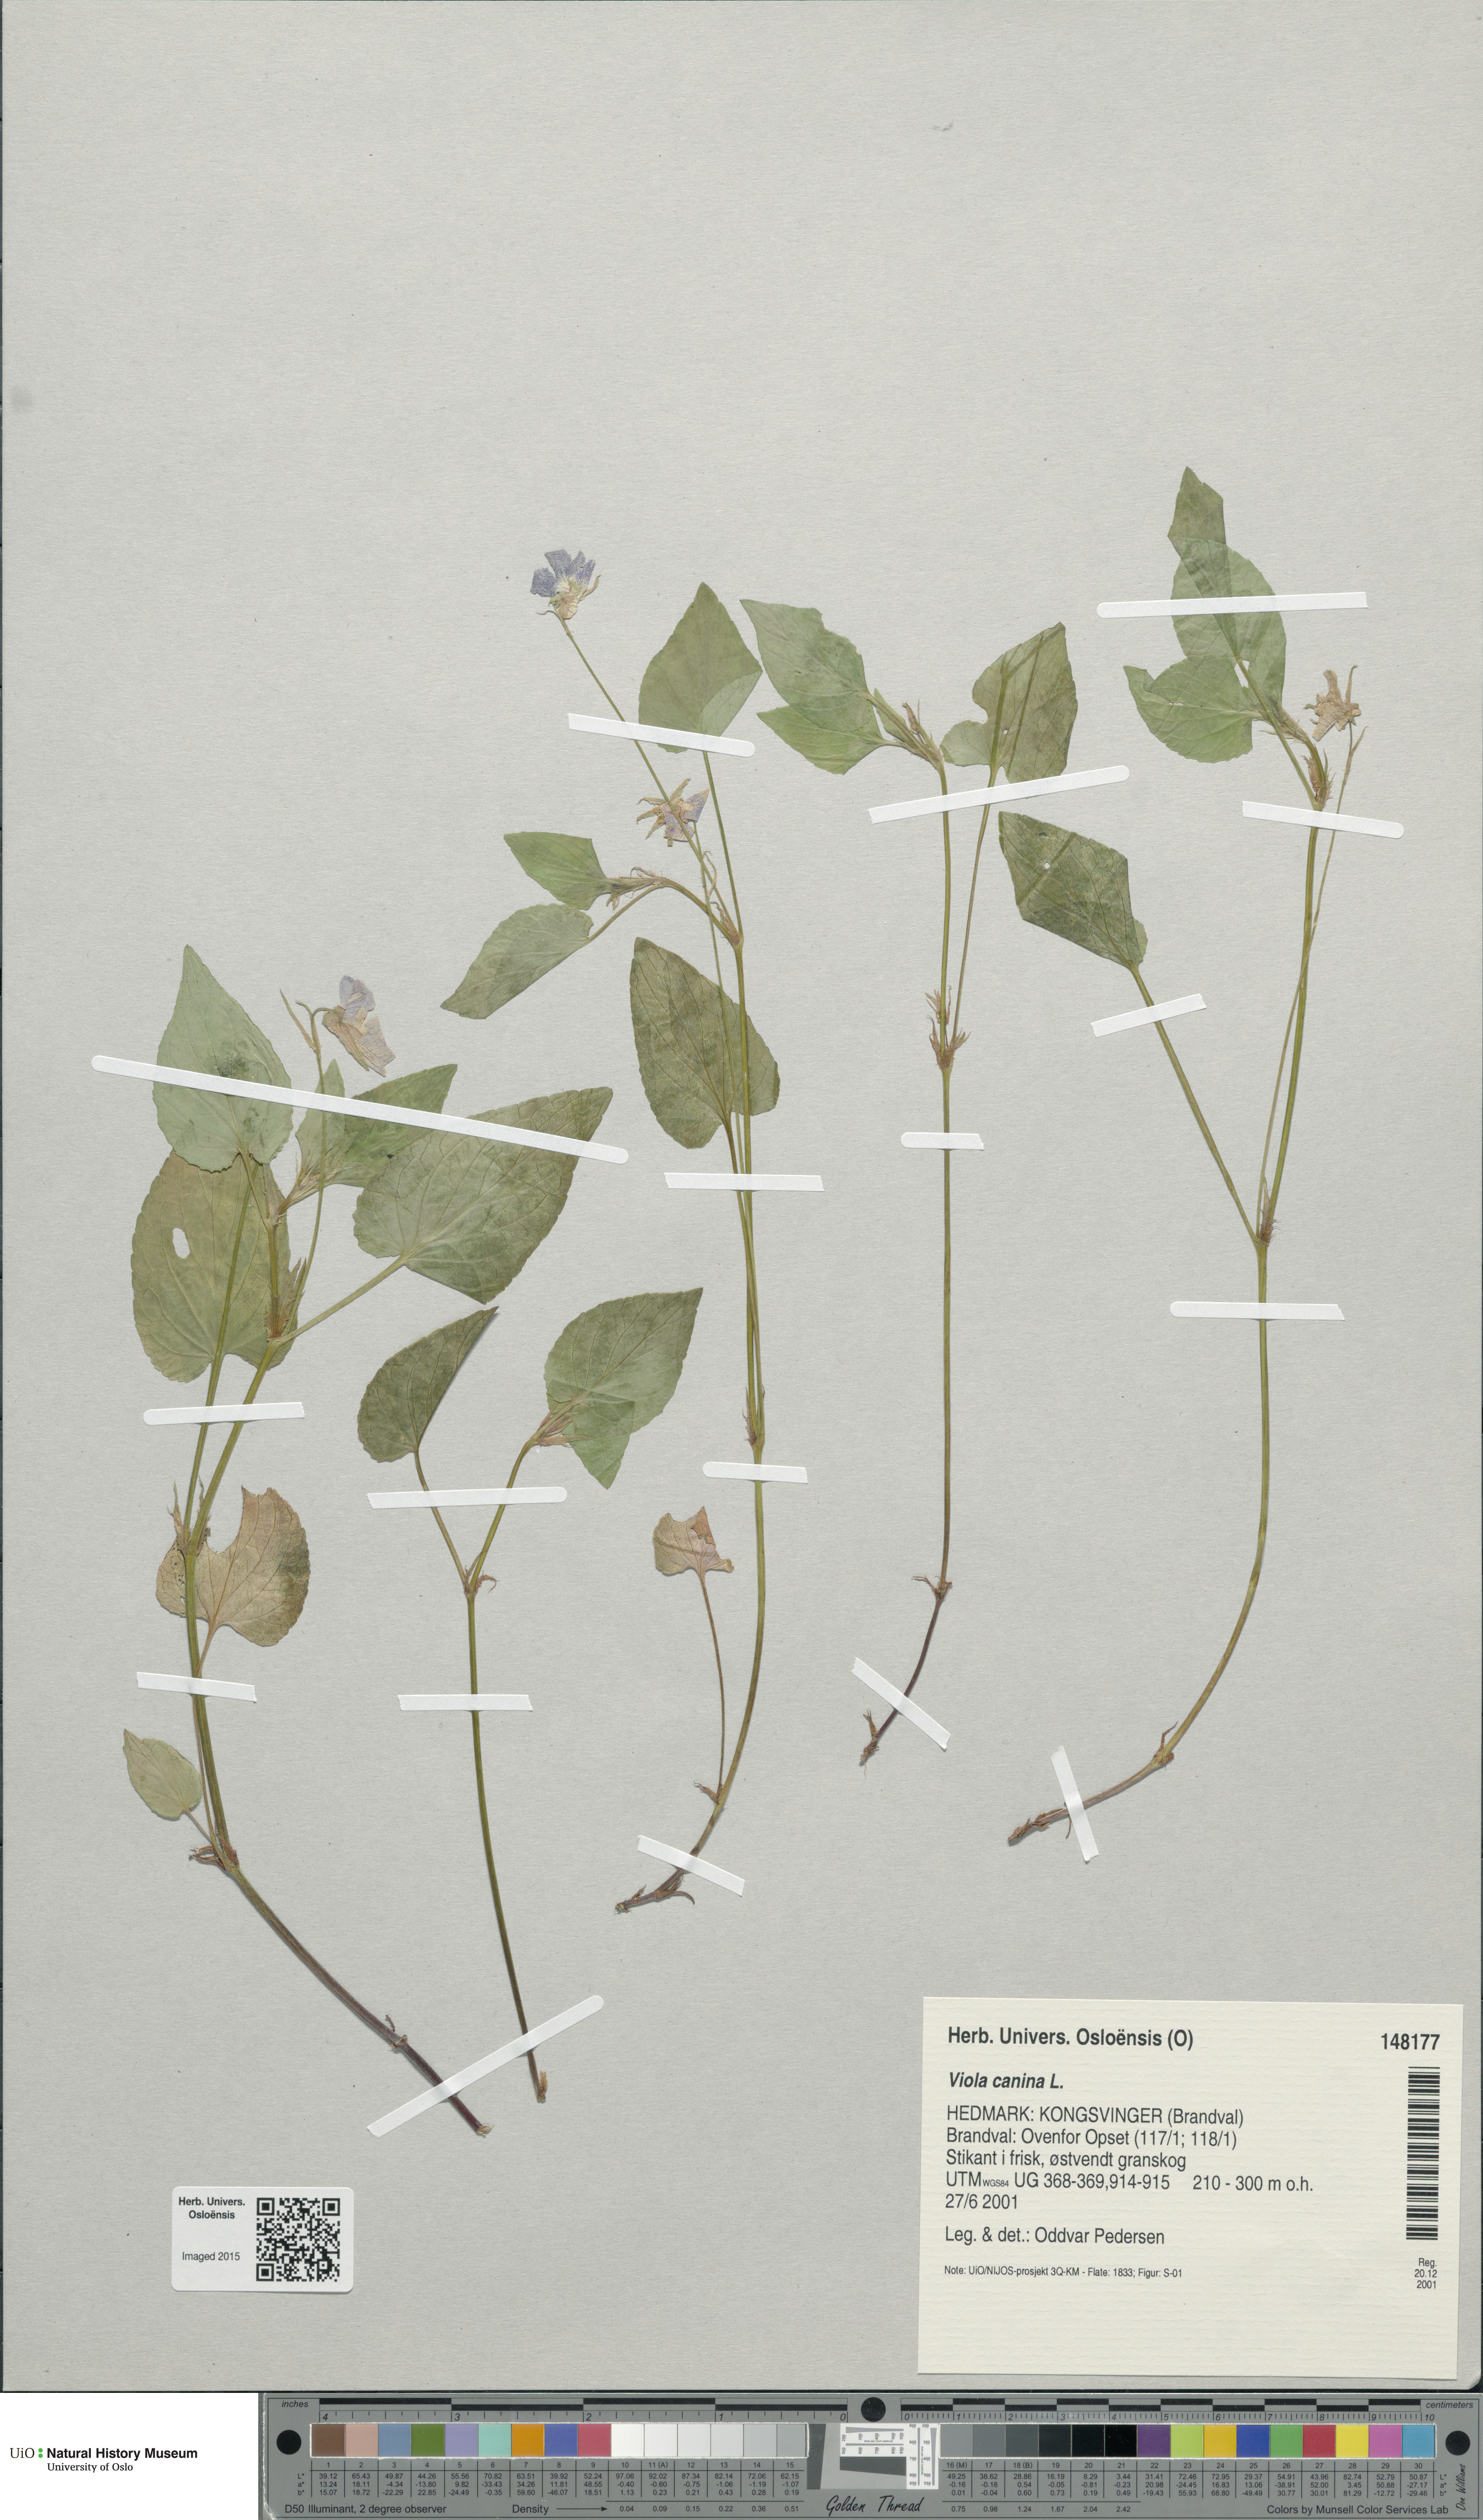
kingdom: Plantae
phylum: Tracheophyta
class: Magnoliopsida
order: Malpighiales
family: Violaceae
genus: Viola
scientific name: Viola canina
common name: Heath dog-violet
